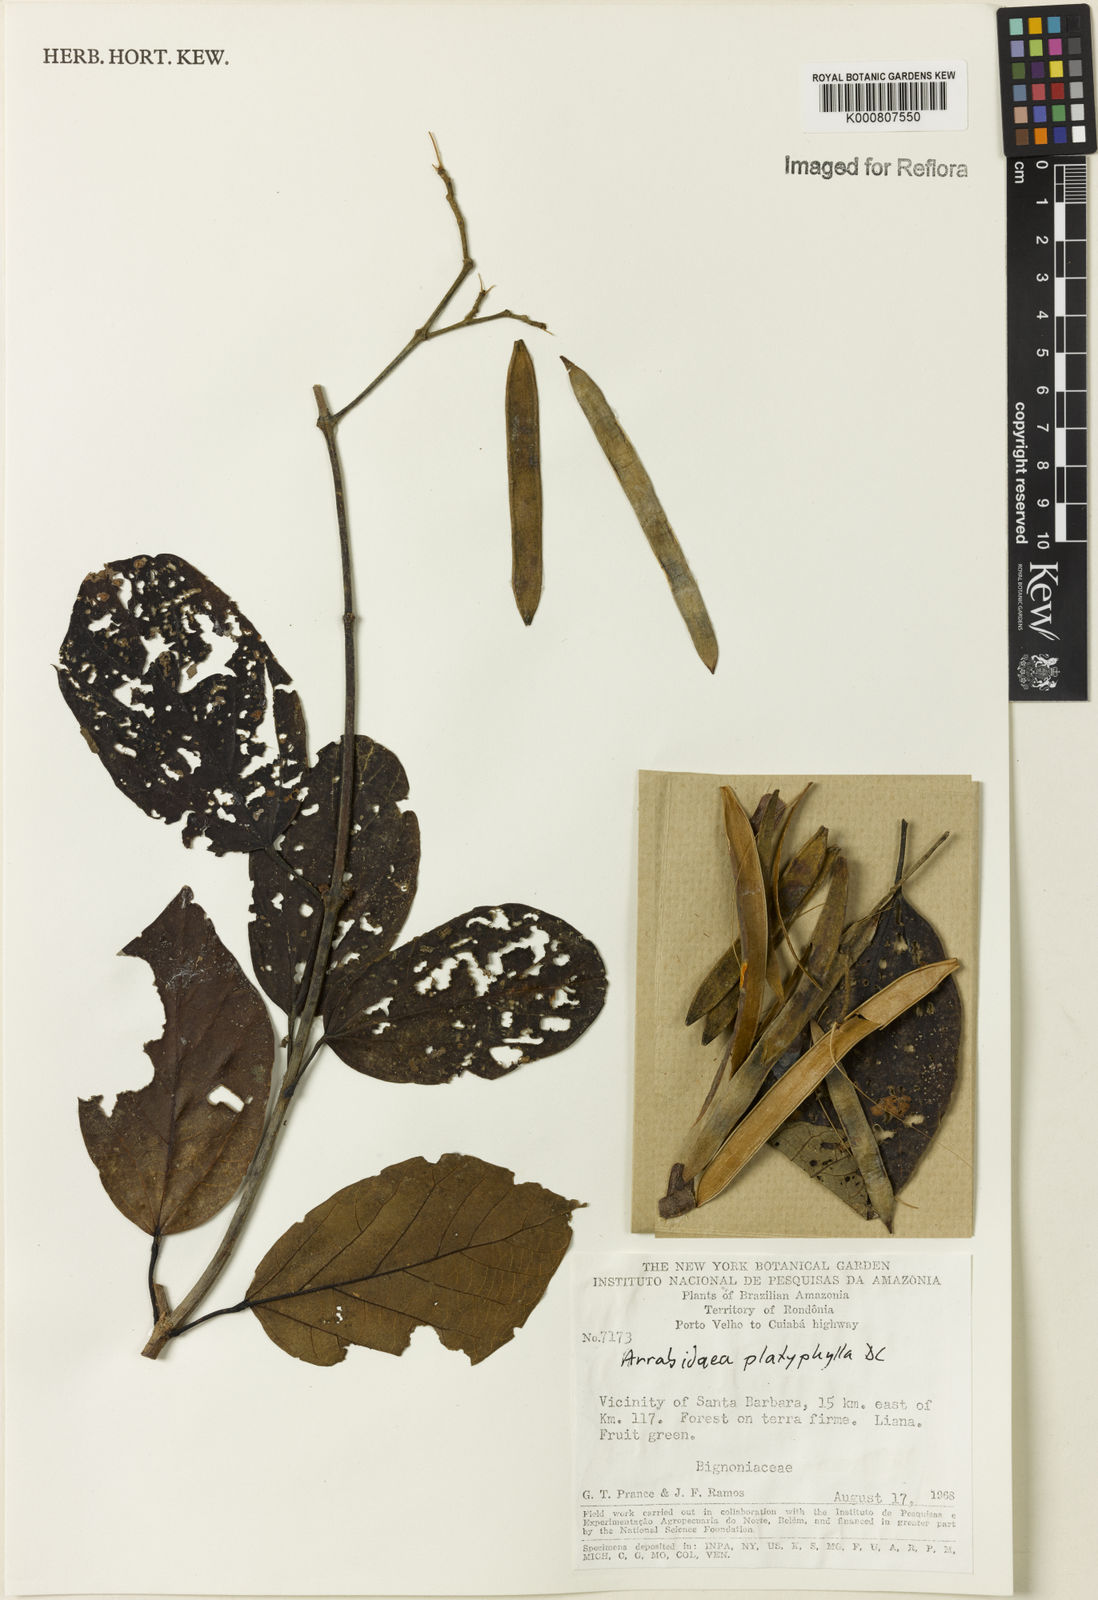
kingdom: Plantae
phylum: Tracheophyta
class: Magnoliopsida
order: Lamiales
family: Bignoniaceae
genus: Xylophragma
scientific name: Xylophragma platyphyllum
